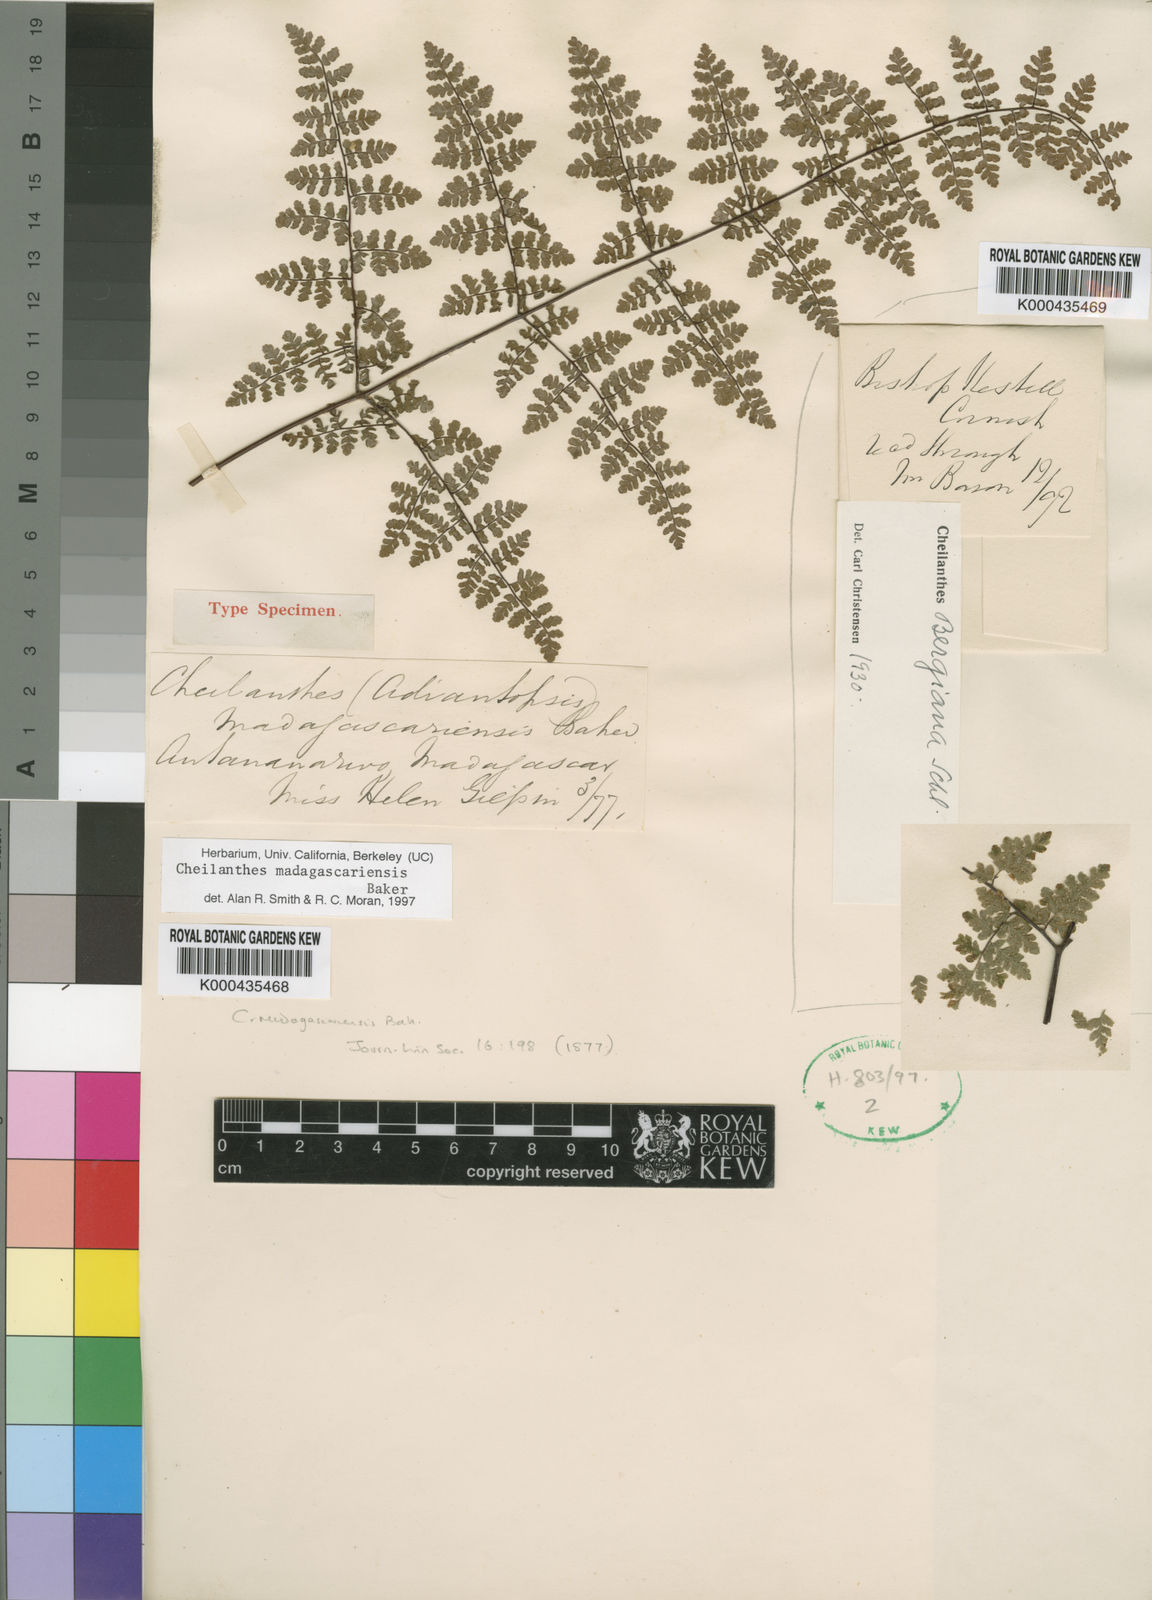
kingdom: Plantae
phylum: Tracheophyta
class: Polypodiopsida
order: Polypodiales
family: Pteridaceae
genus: Cheilanthes
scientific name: Cheilanthes madagascariensis
